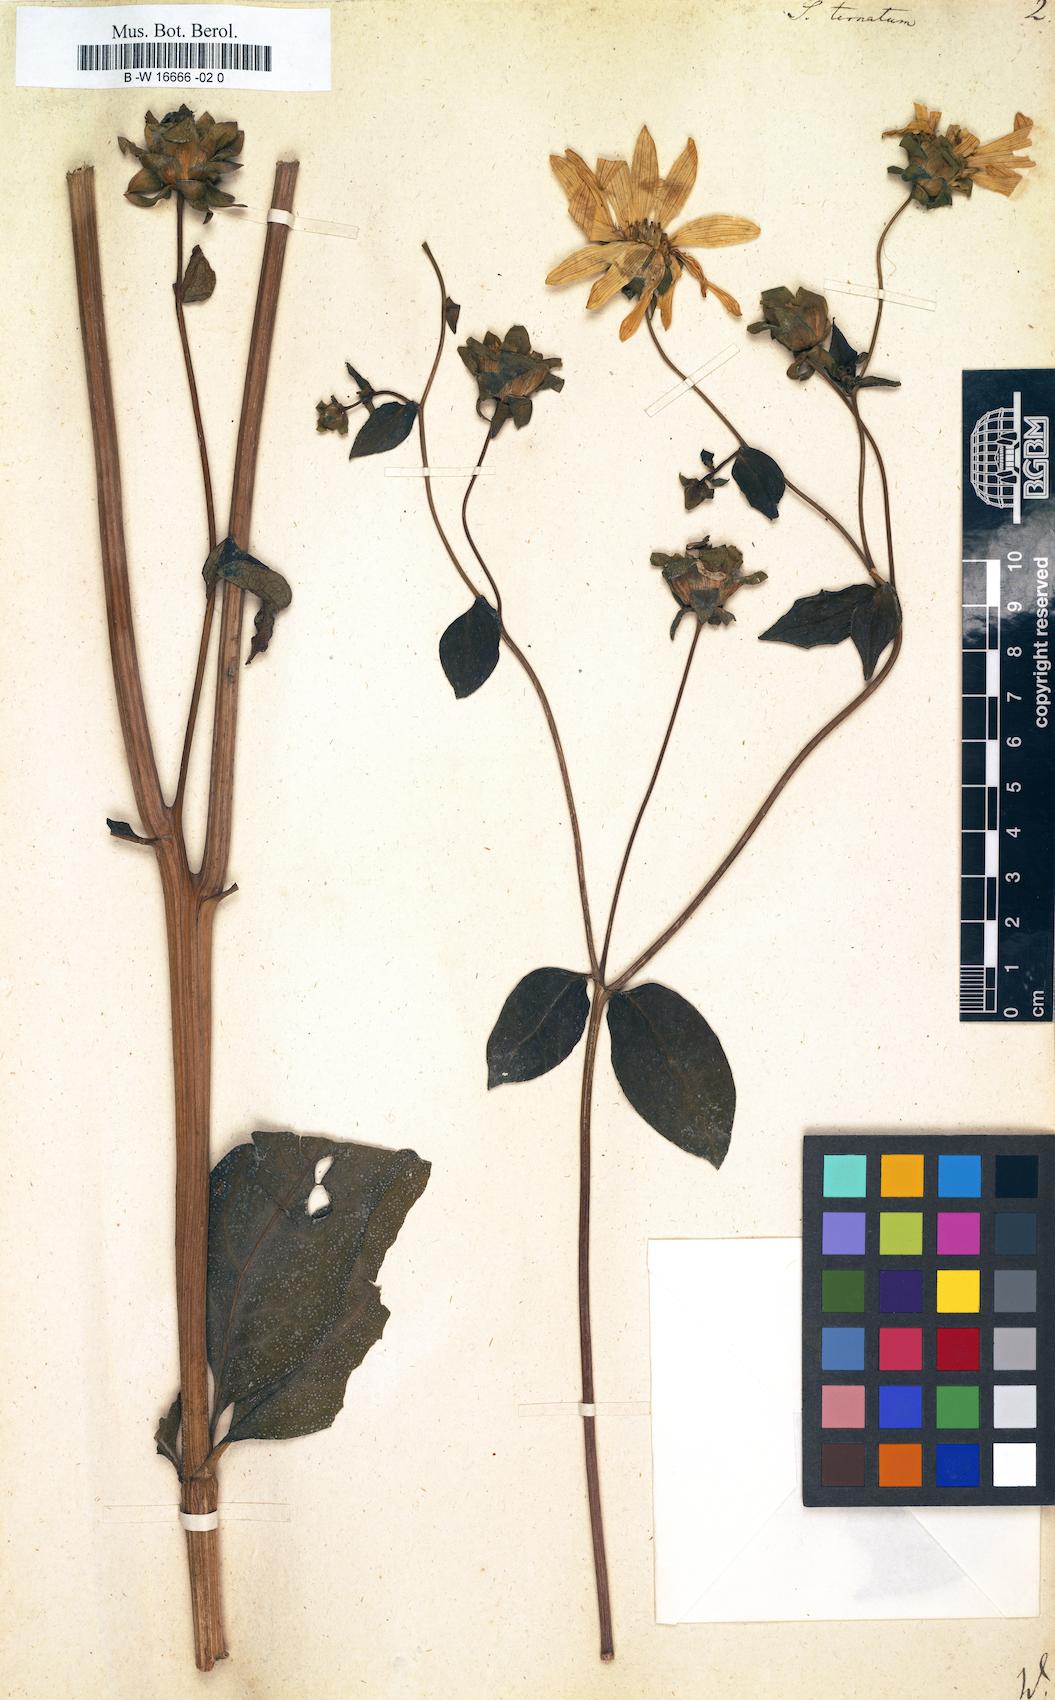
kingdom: Plantae
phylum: Tracheophyta
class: Magnoliopsida
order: Asterales
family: Asteraceae
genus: Silphium
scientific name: Silphium ternatum
